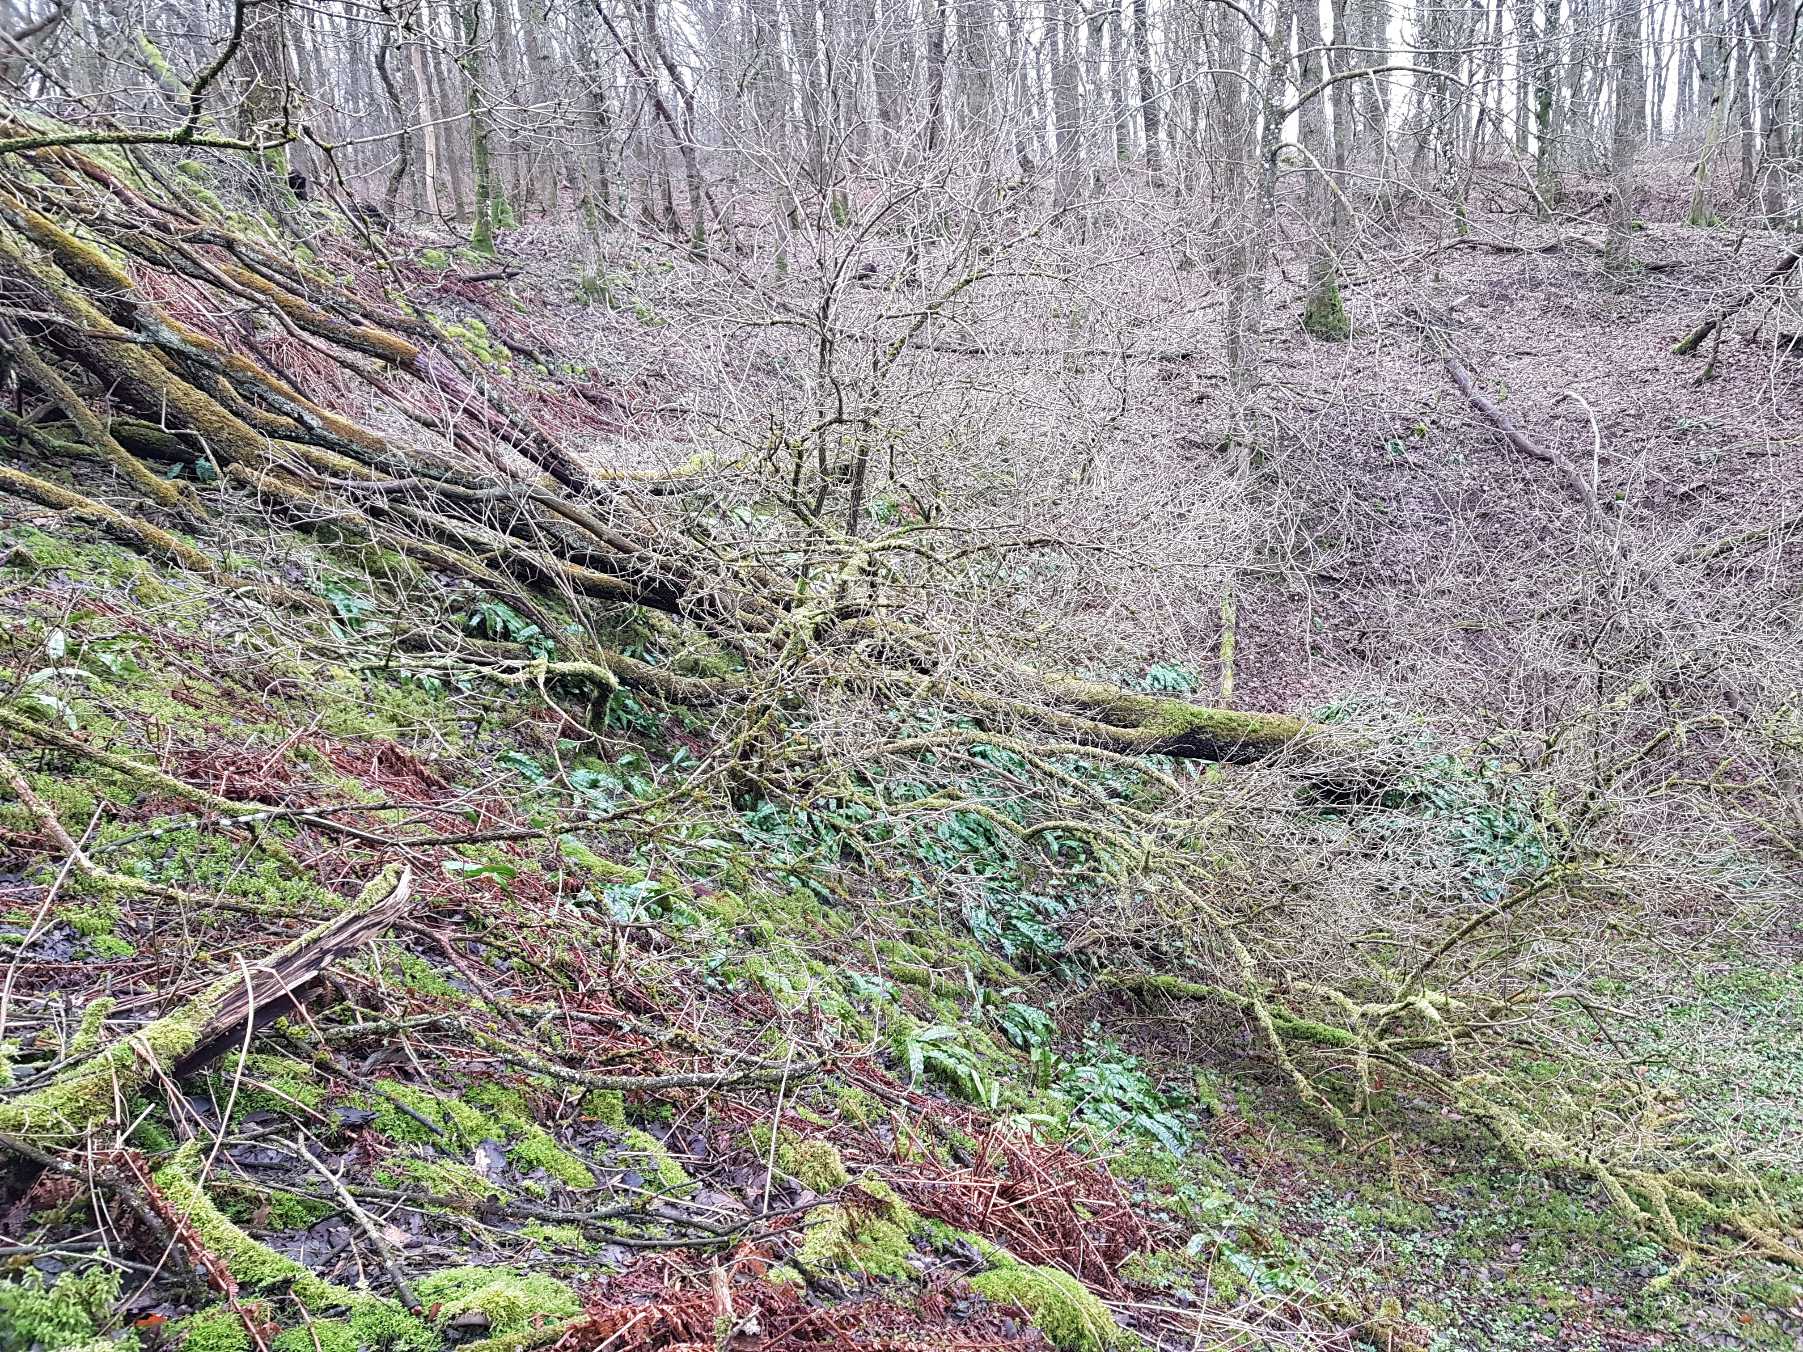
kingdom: Plantae
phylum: Tracheophyta
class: Polypodiopsida
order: Polypodiales
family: Aspleniaceae
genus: Asplenium
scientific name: Asplenium scolopendrium
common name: Hjortetunge
